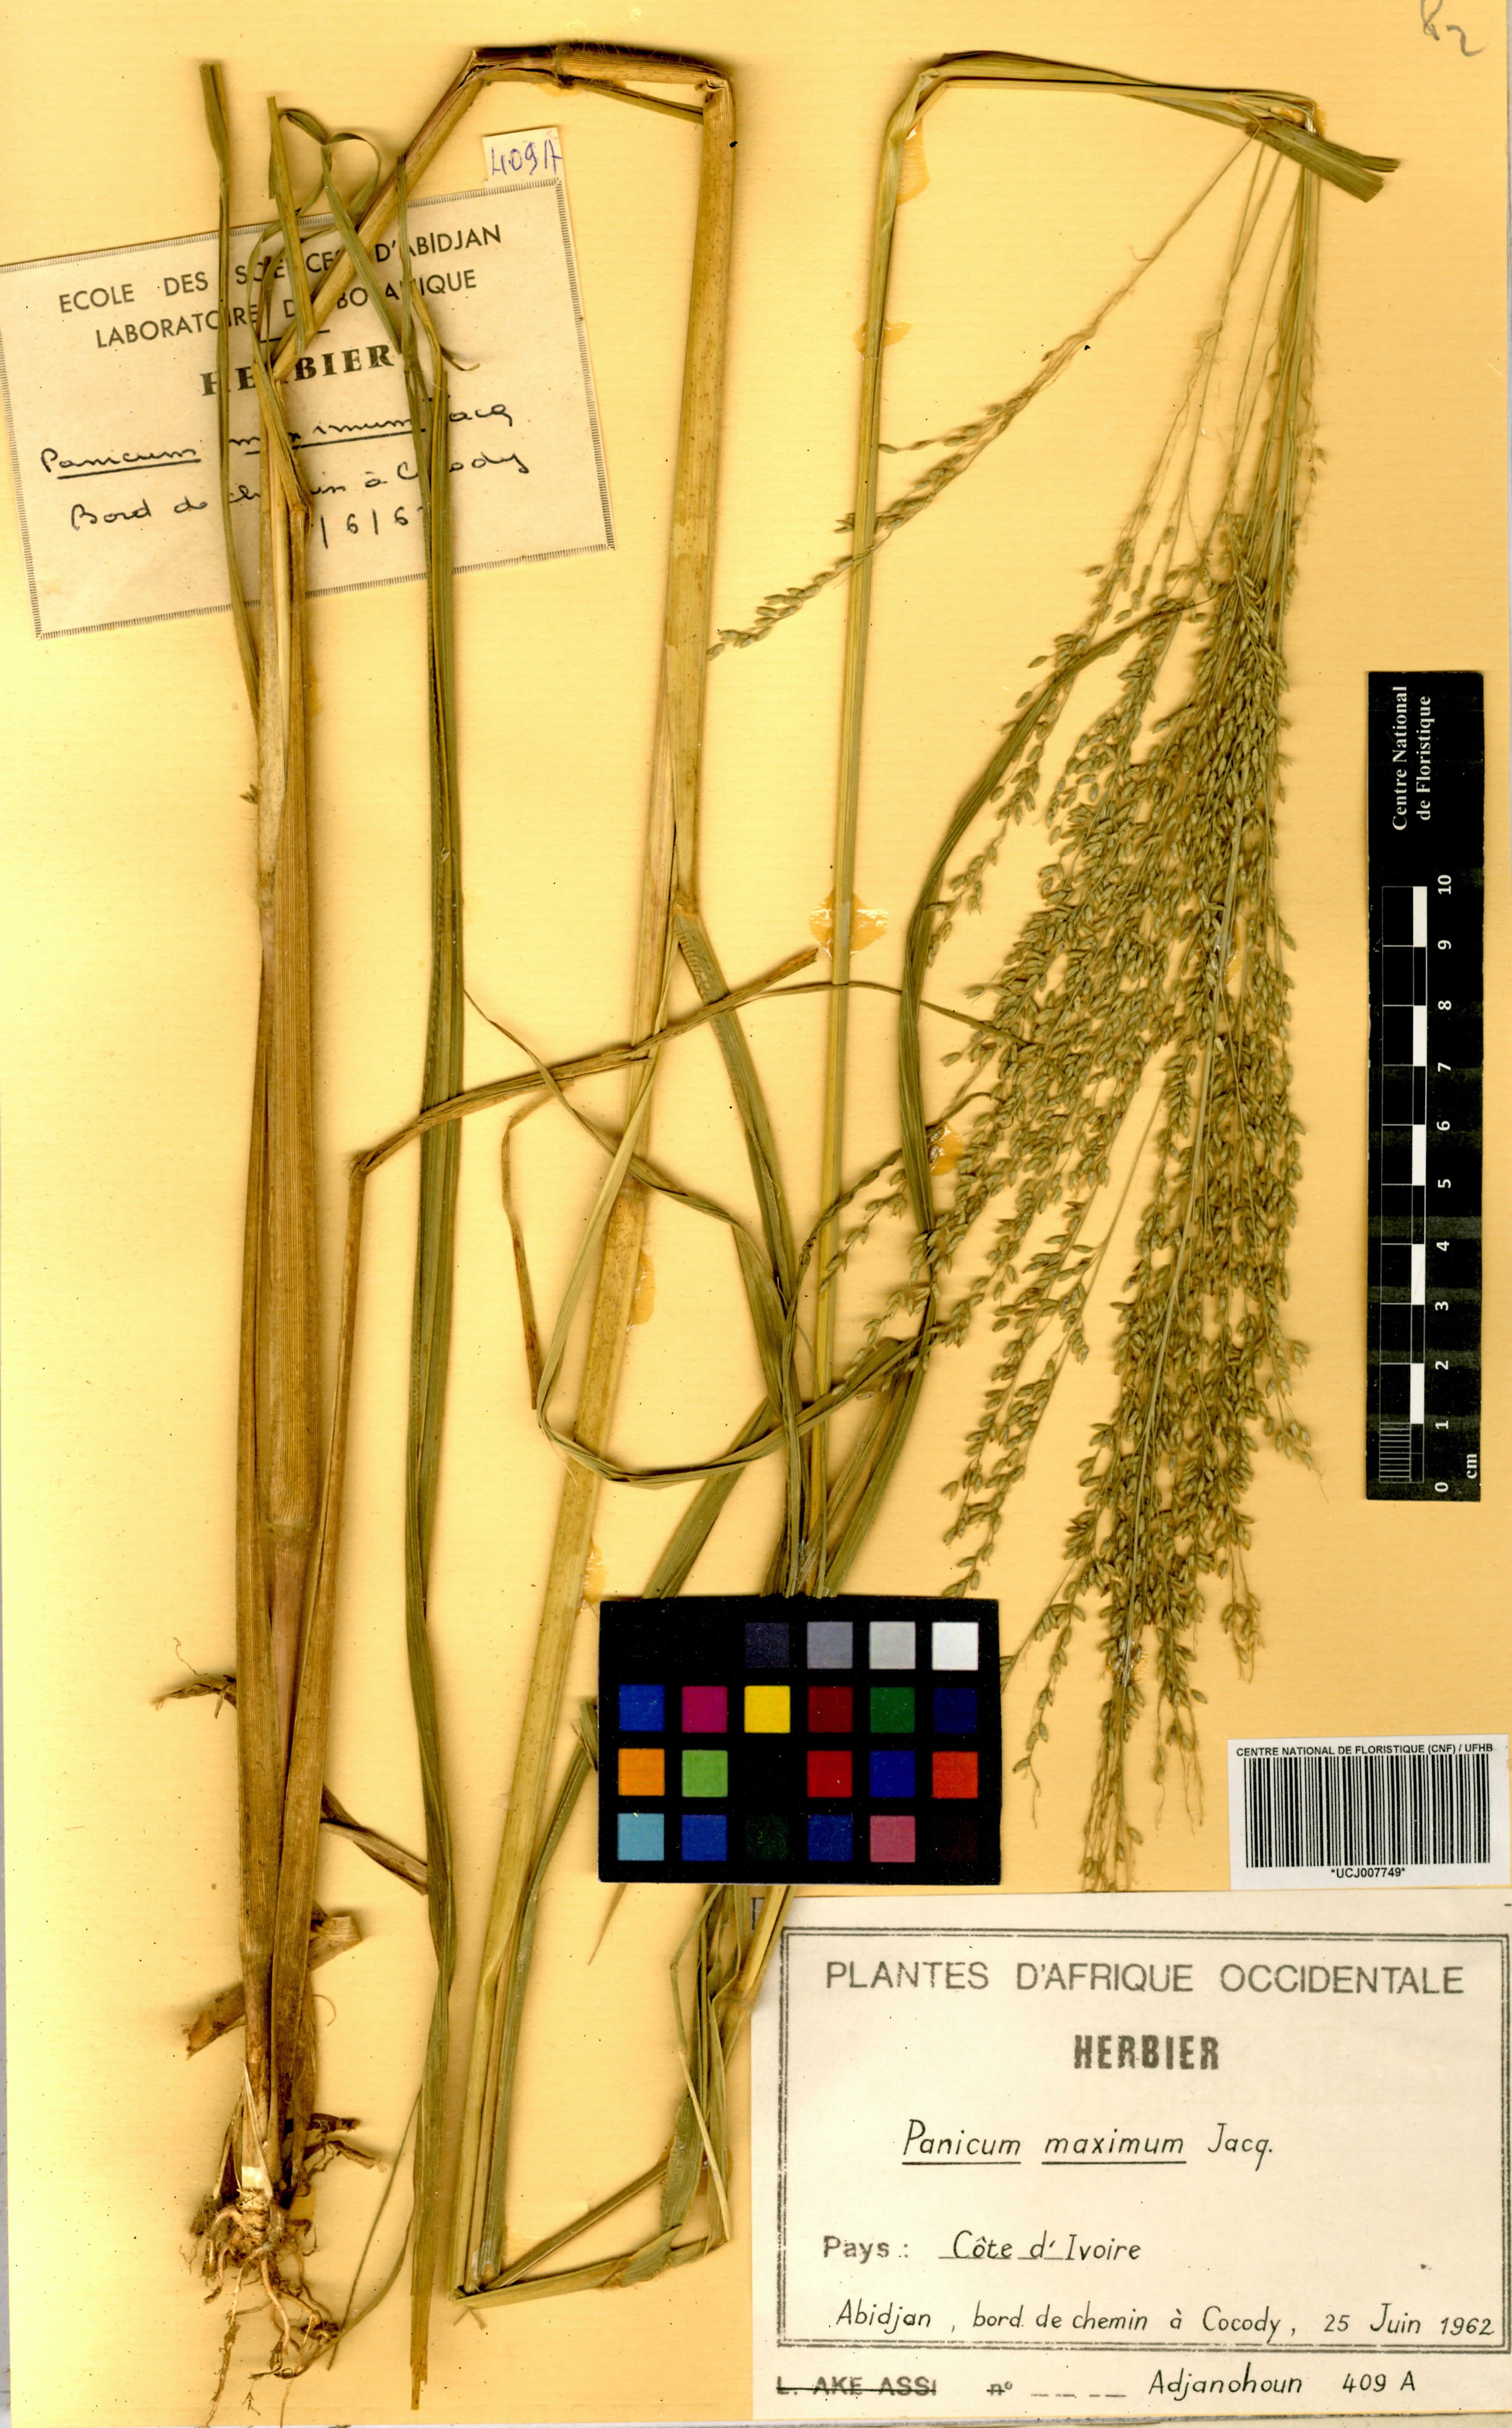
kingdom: Plantae
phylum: Tracheophyta
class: Liliopsida
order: Poales
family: Poaceae
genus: Megathyrsus
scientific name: Megathyrsus maximus
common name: Guineagrass
